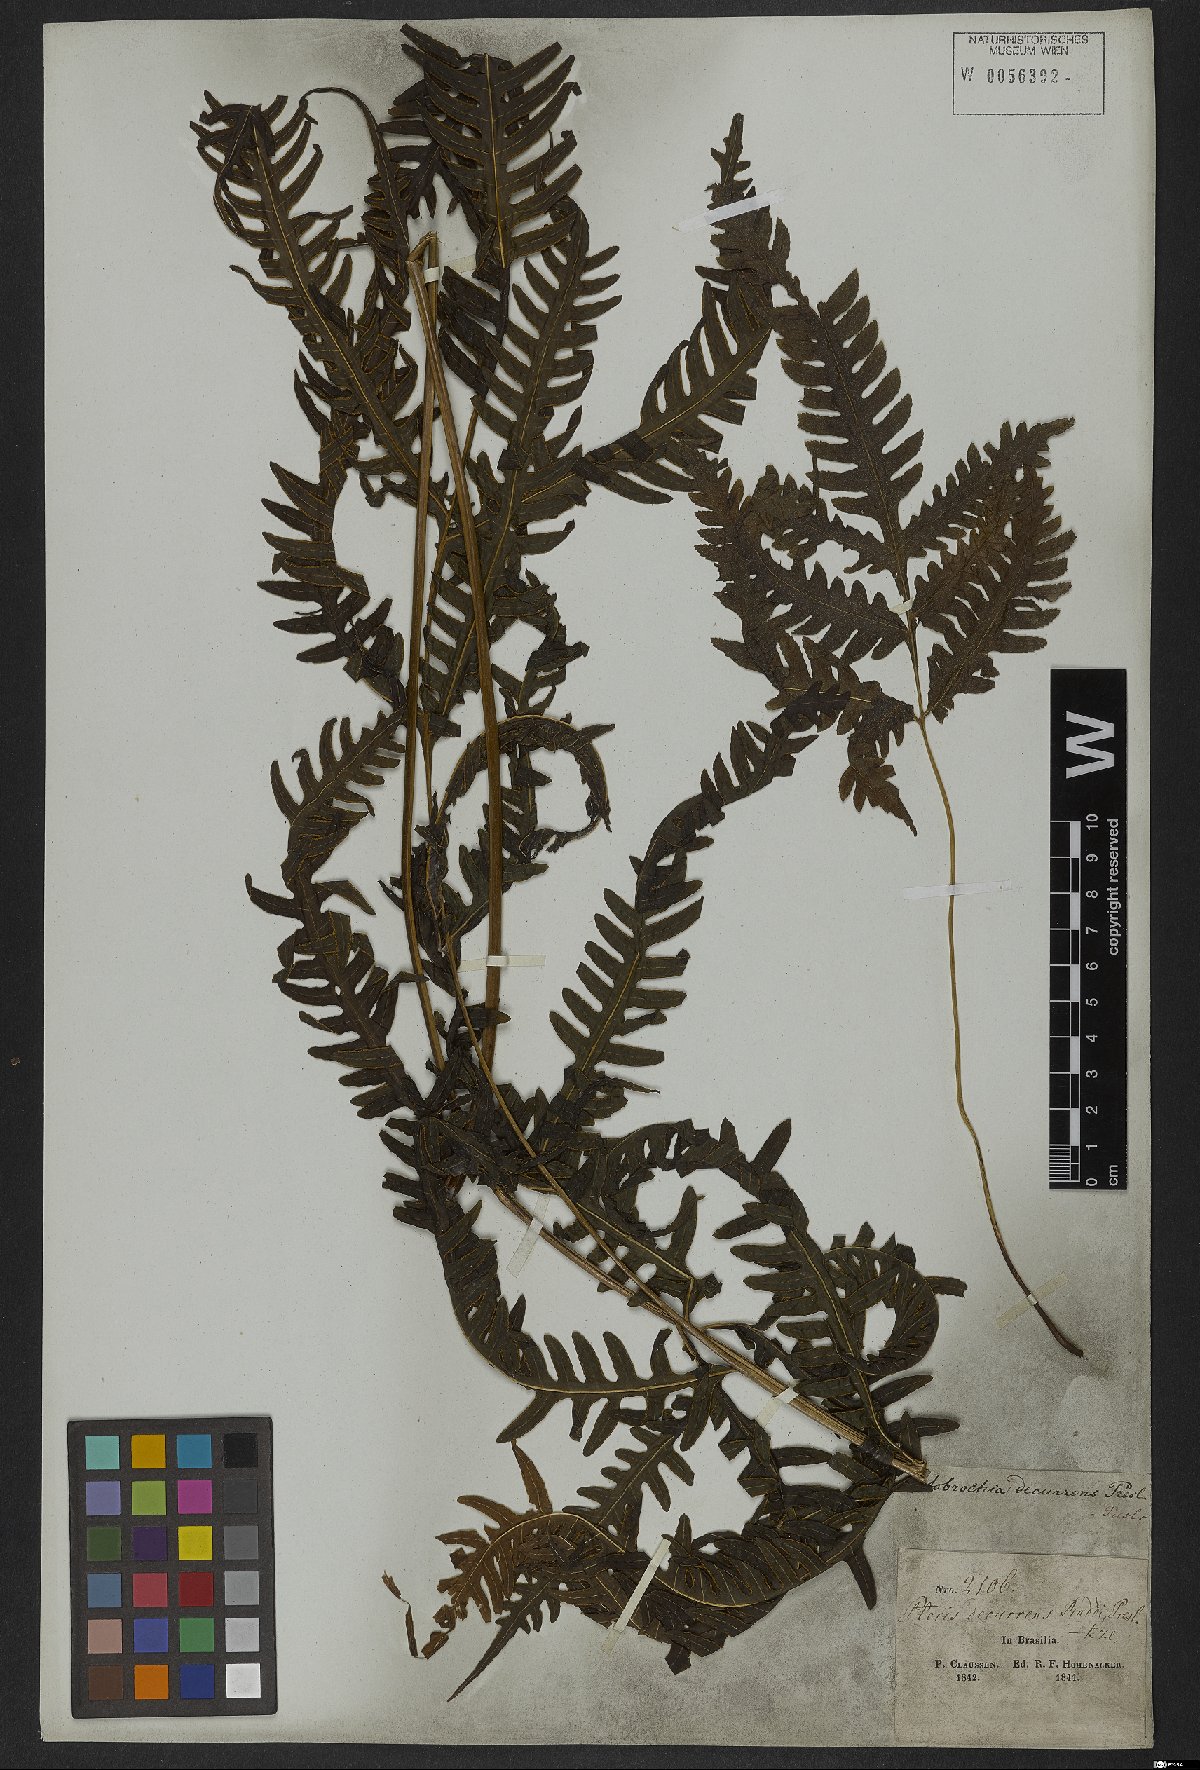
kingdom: Plantae
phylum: Tracheophyta
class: Polypodiopsida
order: Polypodiales
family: Pteridaceae
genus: Pteris
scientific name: Pteris decurrens
